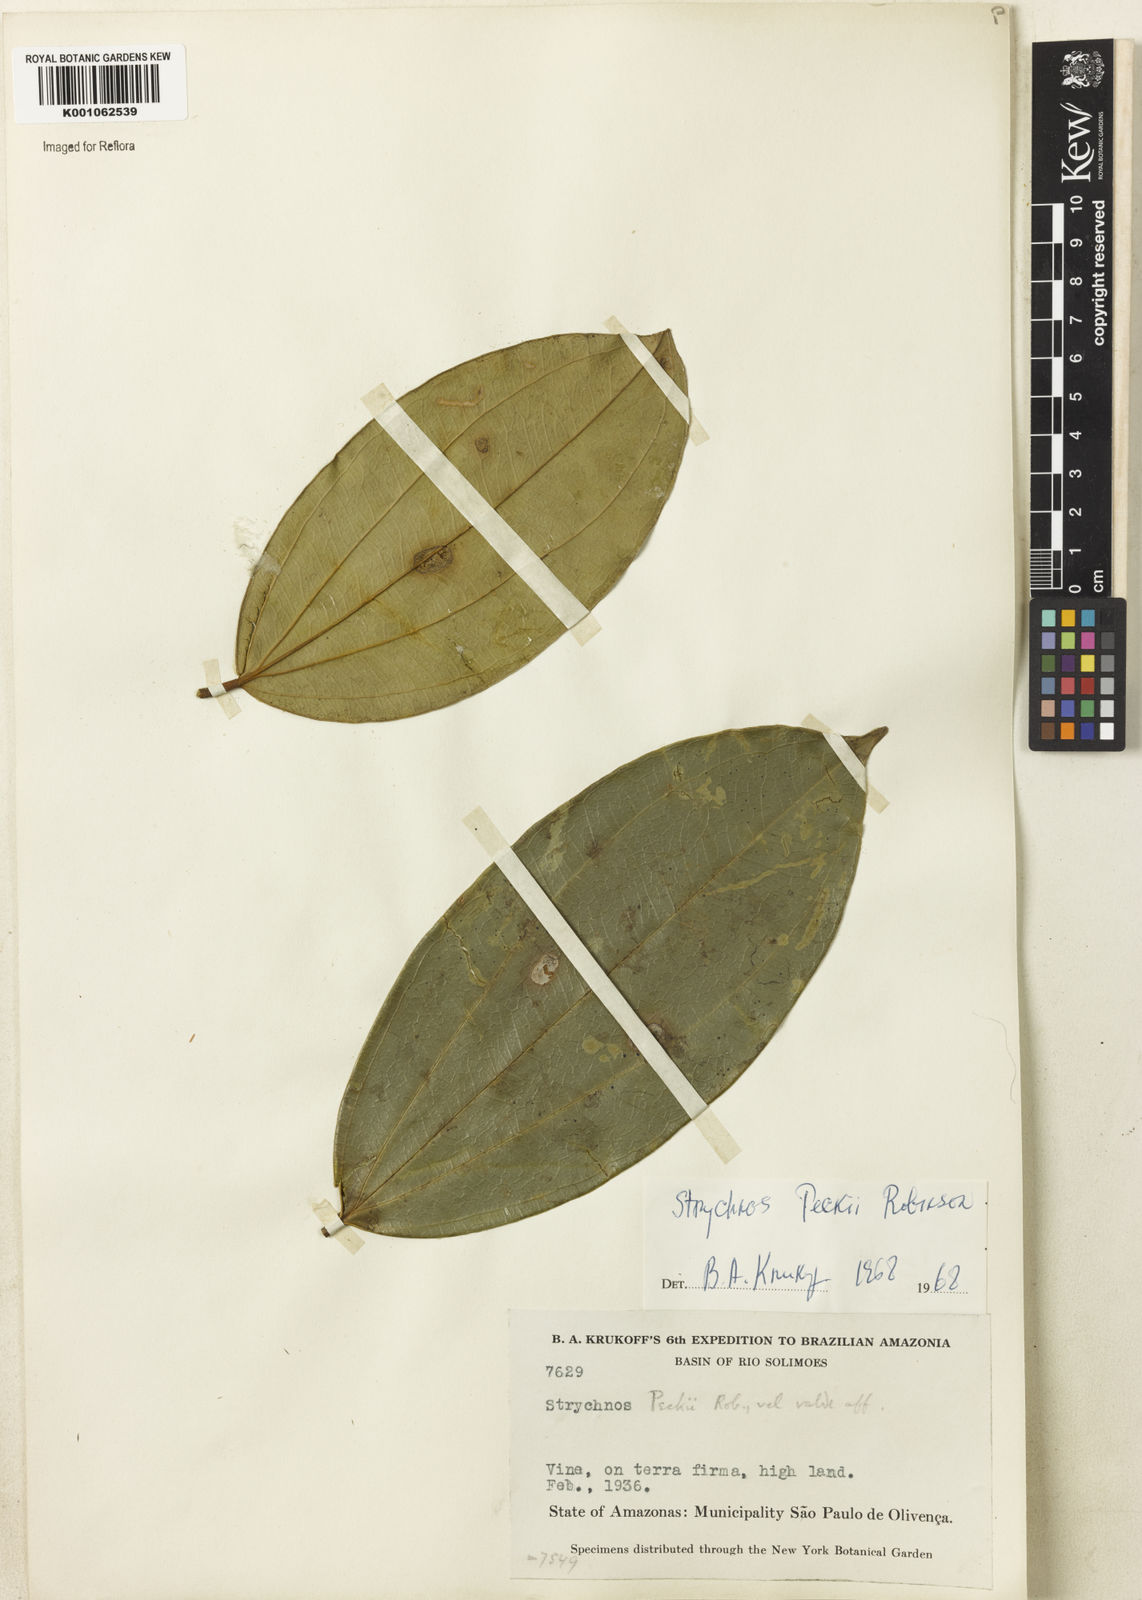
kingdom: Plantae
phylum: Tracheophyta
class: Magnoliopsida
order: Gentianales
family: Loganiaceae
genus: Strychnos
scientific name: Strychnos peckii
